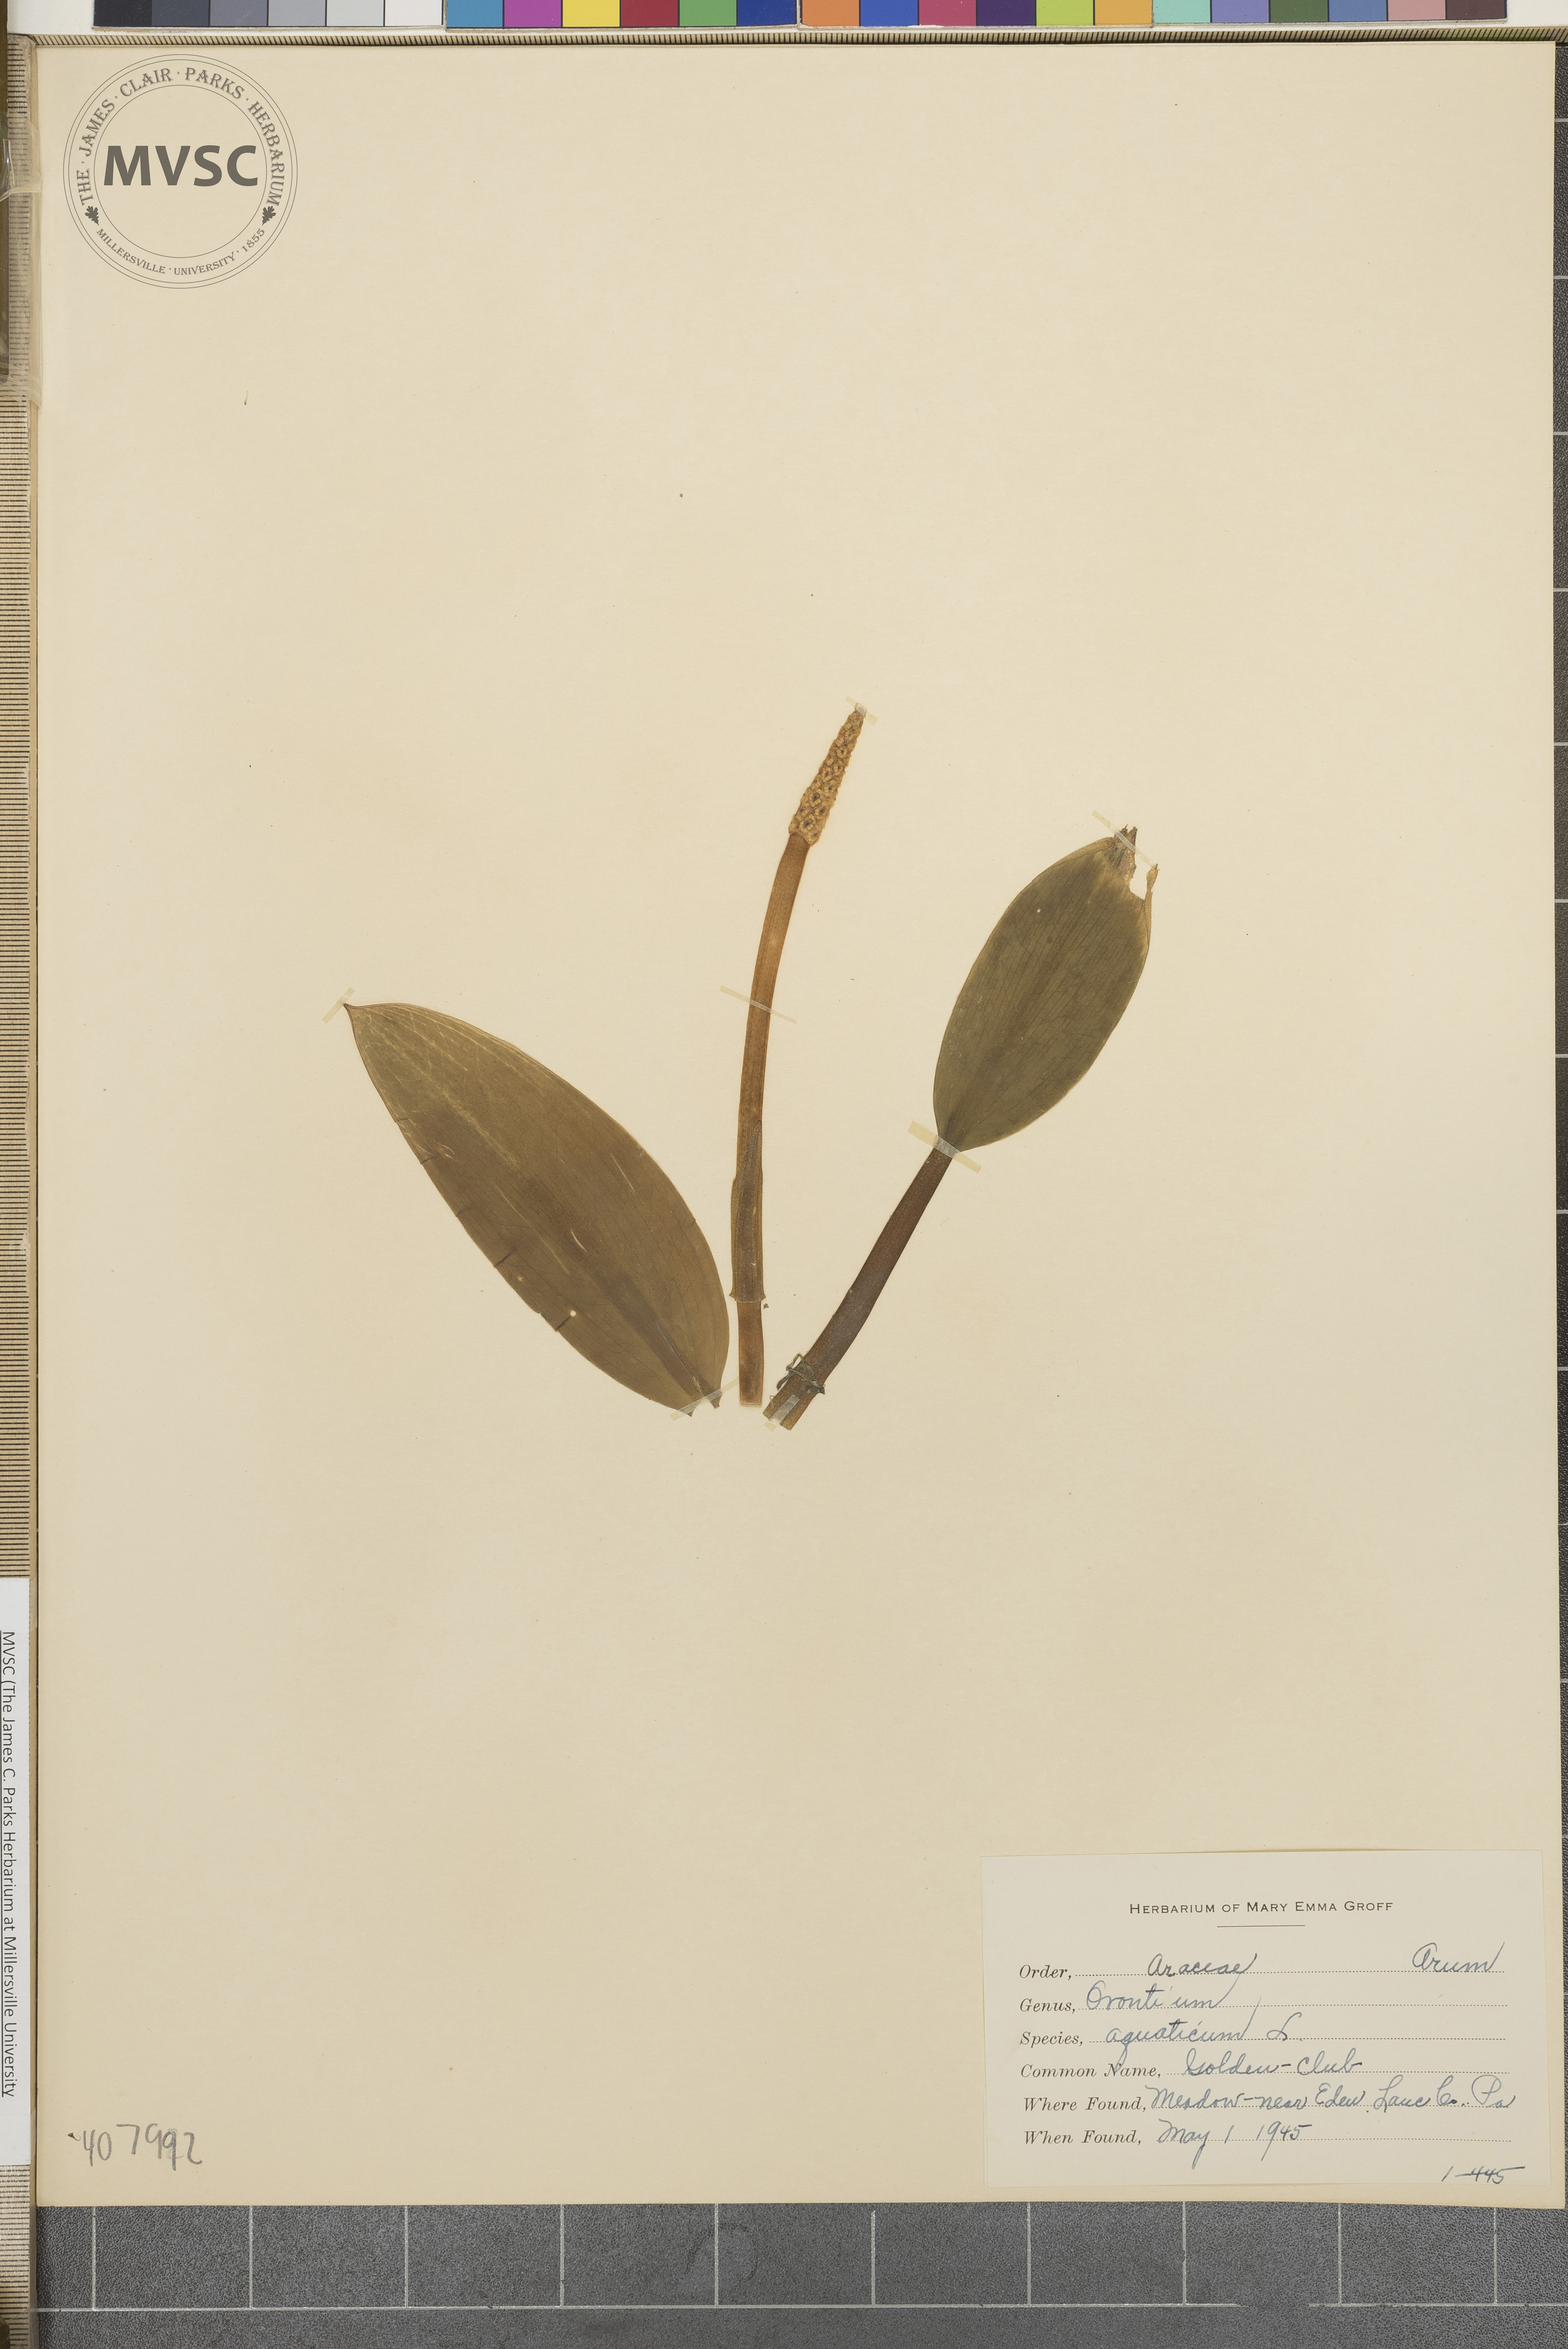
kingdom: Plantae
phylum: Tracheophyta
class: Liliopsida
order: Alismatales
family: Araceae
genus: Orontium
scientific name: Orontium aquaticum
